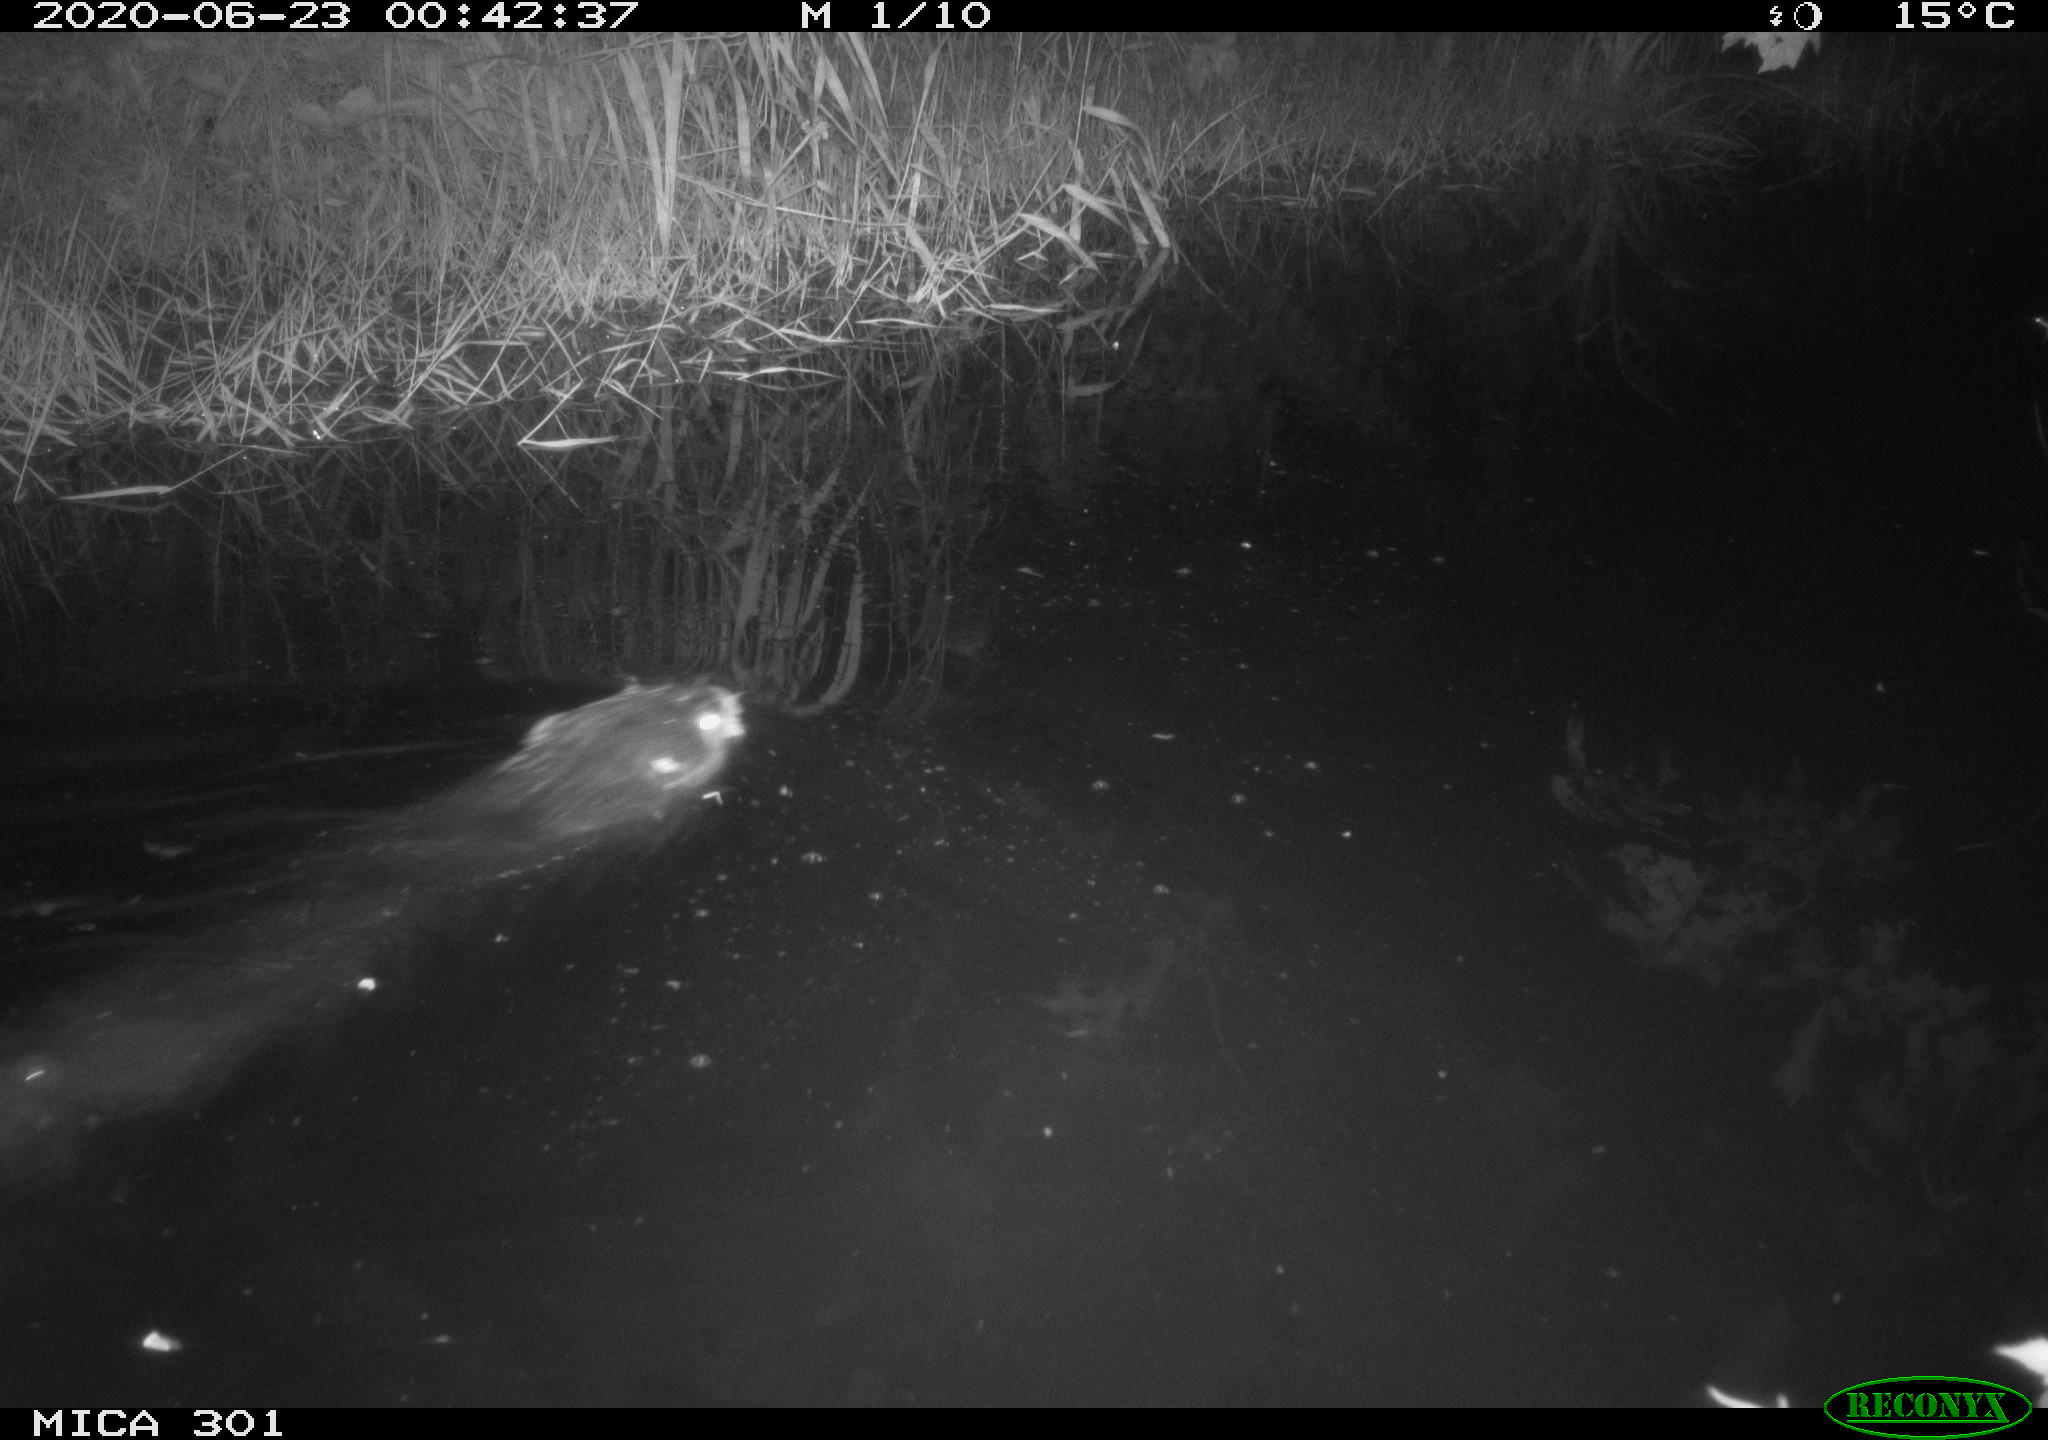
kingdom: Animalia
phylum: Chordata
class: Mammalia
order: Rodentia
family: Castoridae
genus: Castor
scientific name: Castor fiber
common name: Eurasian beaver
